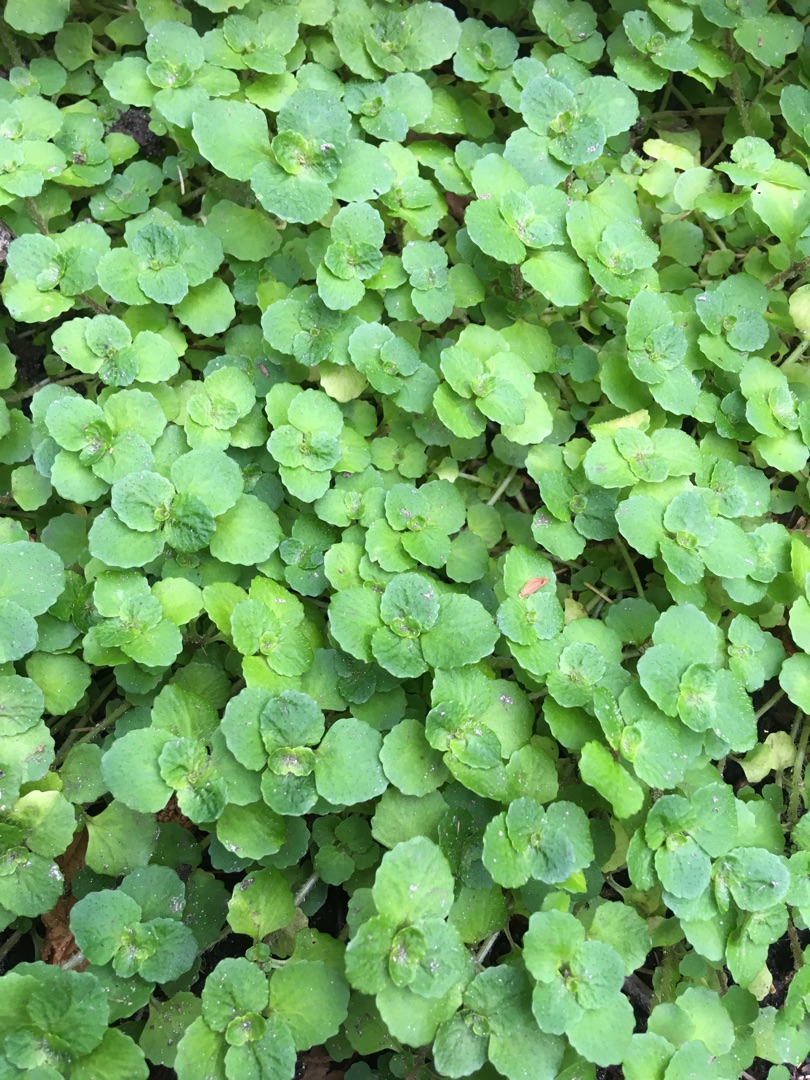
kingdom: Plantae
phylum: Tracheophyta
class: Magnoliopsida
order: Saxifragales
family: Saxifragaceae
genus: Chrysosplenium
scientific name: Chrysosplenium oppositifolium
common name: Småbladet milturt
